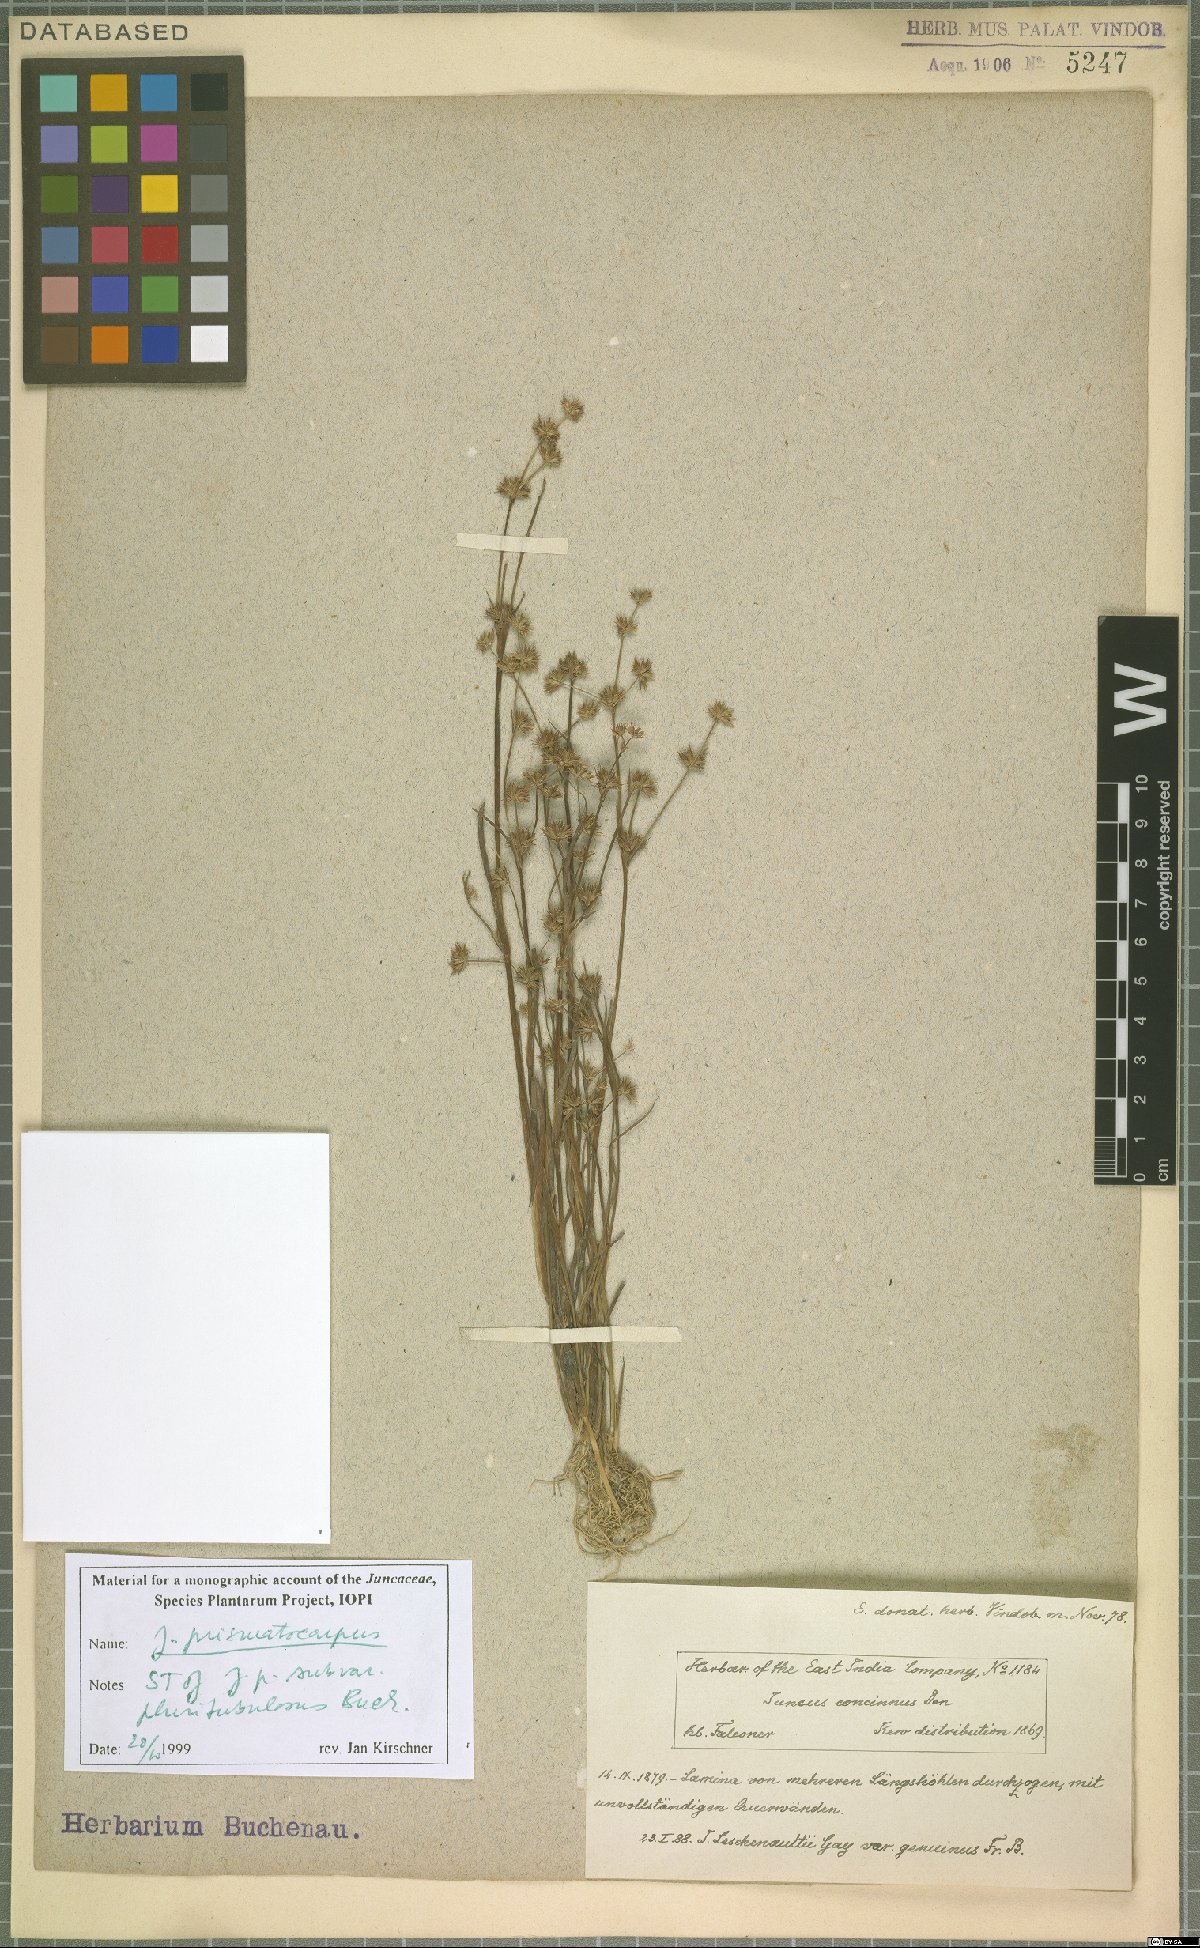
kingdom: Plantae
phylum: Tracheophyta
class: Liliopsida
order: Poales
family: Juncaceae
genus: Juncus
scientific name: Juncus prismatocarpus
